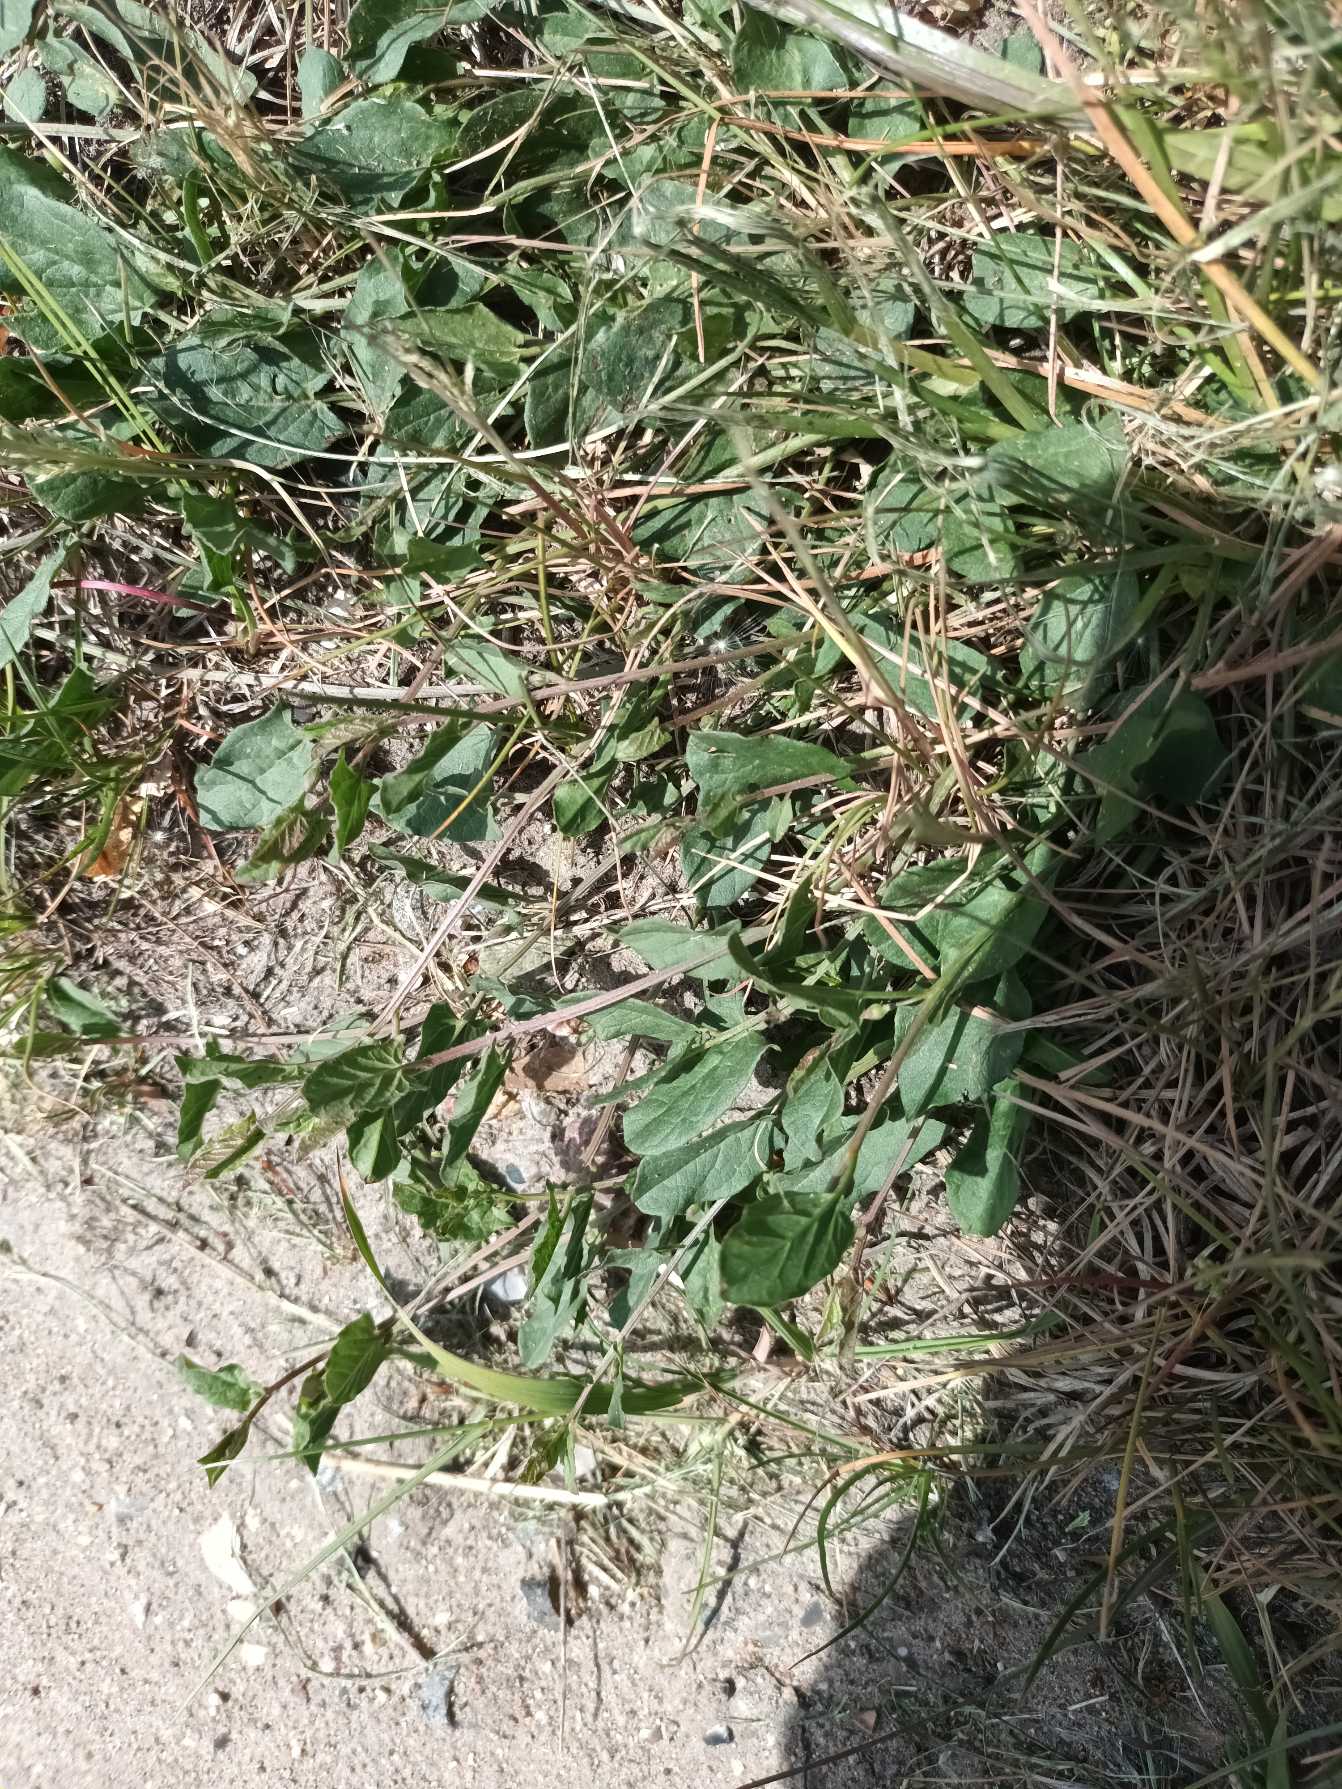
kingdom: Plantae
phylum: Tracheophyta
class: Magnoliopsida
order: Solanales
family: Convolvulaceae
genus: Convolvulus
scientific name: Convolvulus arvensis
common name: Ager-snerle
